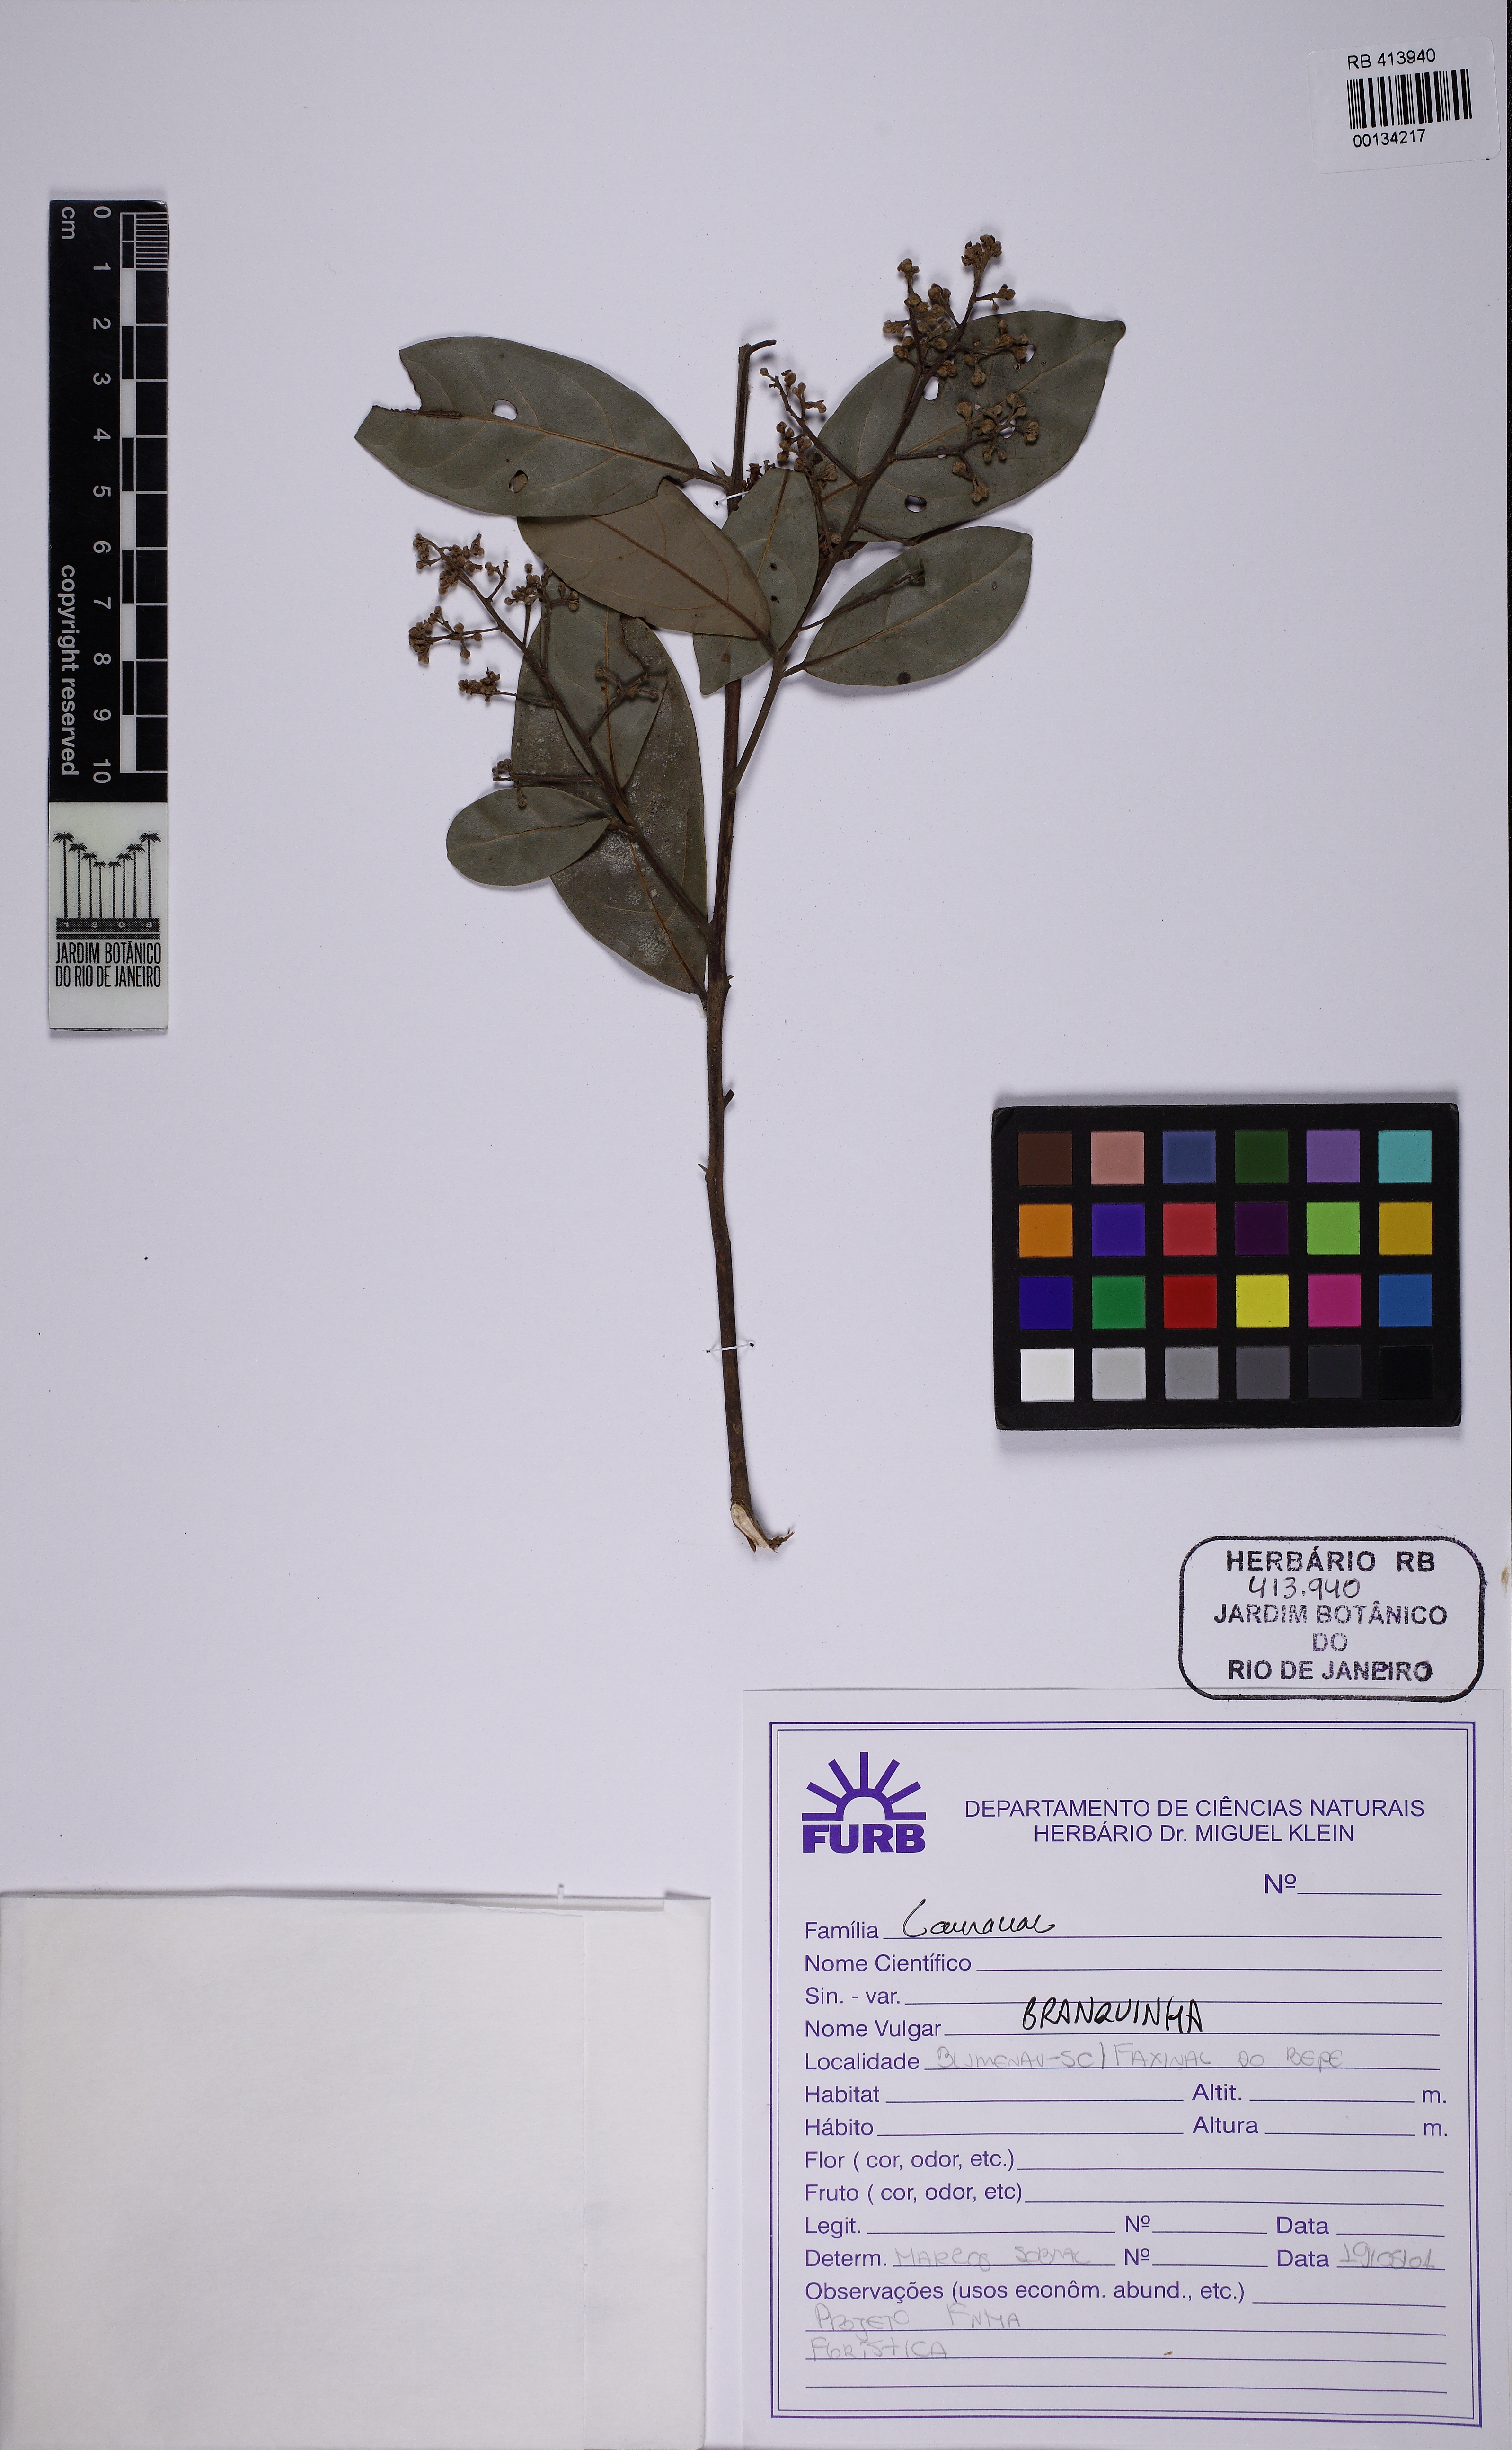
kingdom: Plantae
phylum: Tracheophyta
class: Magnoliopsida
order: Laurales
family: Lauraceae
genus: Ocotea
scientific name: Ocotea lancifolia
